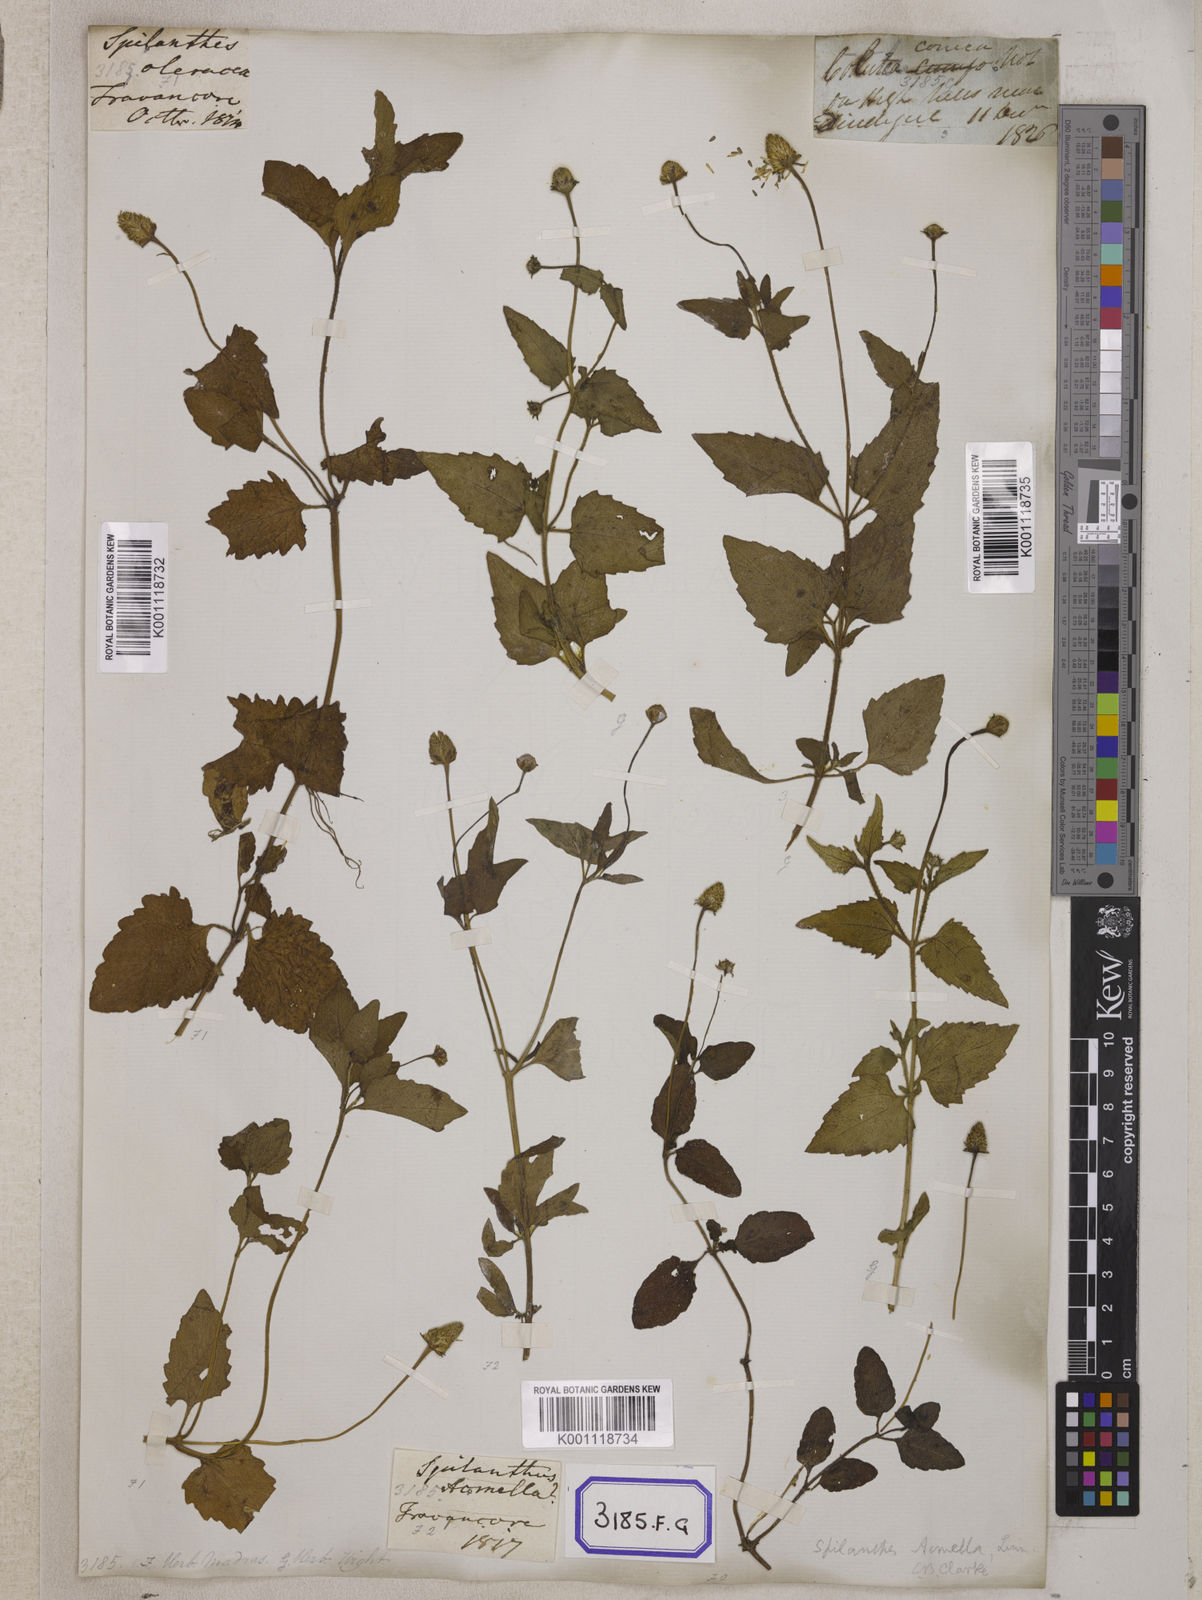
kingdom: Plantae
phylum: Tracheophyta
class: Magnoliopsida
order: Asterales
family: Asteraceae
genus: Blainvillea
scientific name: Blainvillea acmella
